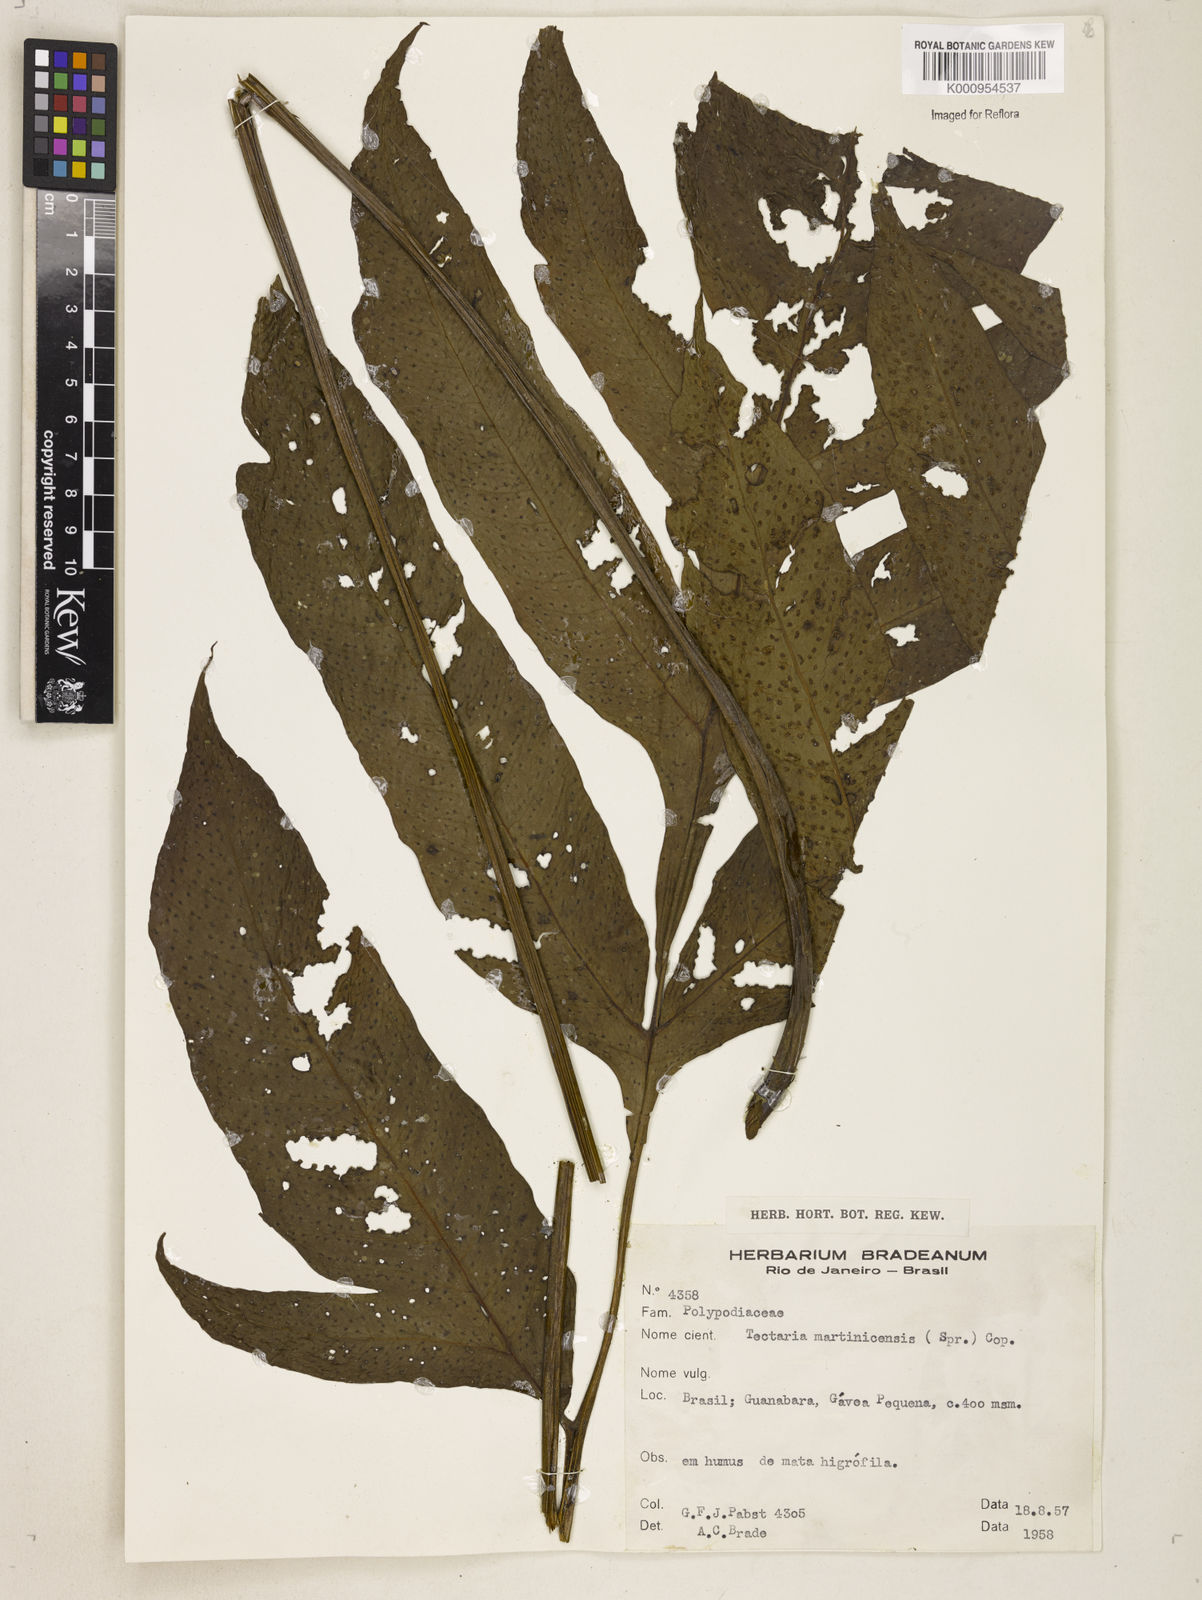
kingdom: Plantae
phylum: Tracheophyta
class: Polypodiopsida
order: Polypodiales
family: Tectariaceae
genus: Tectaria
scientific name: Tectaria
